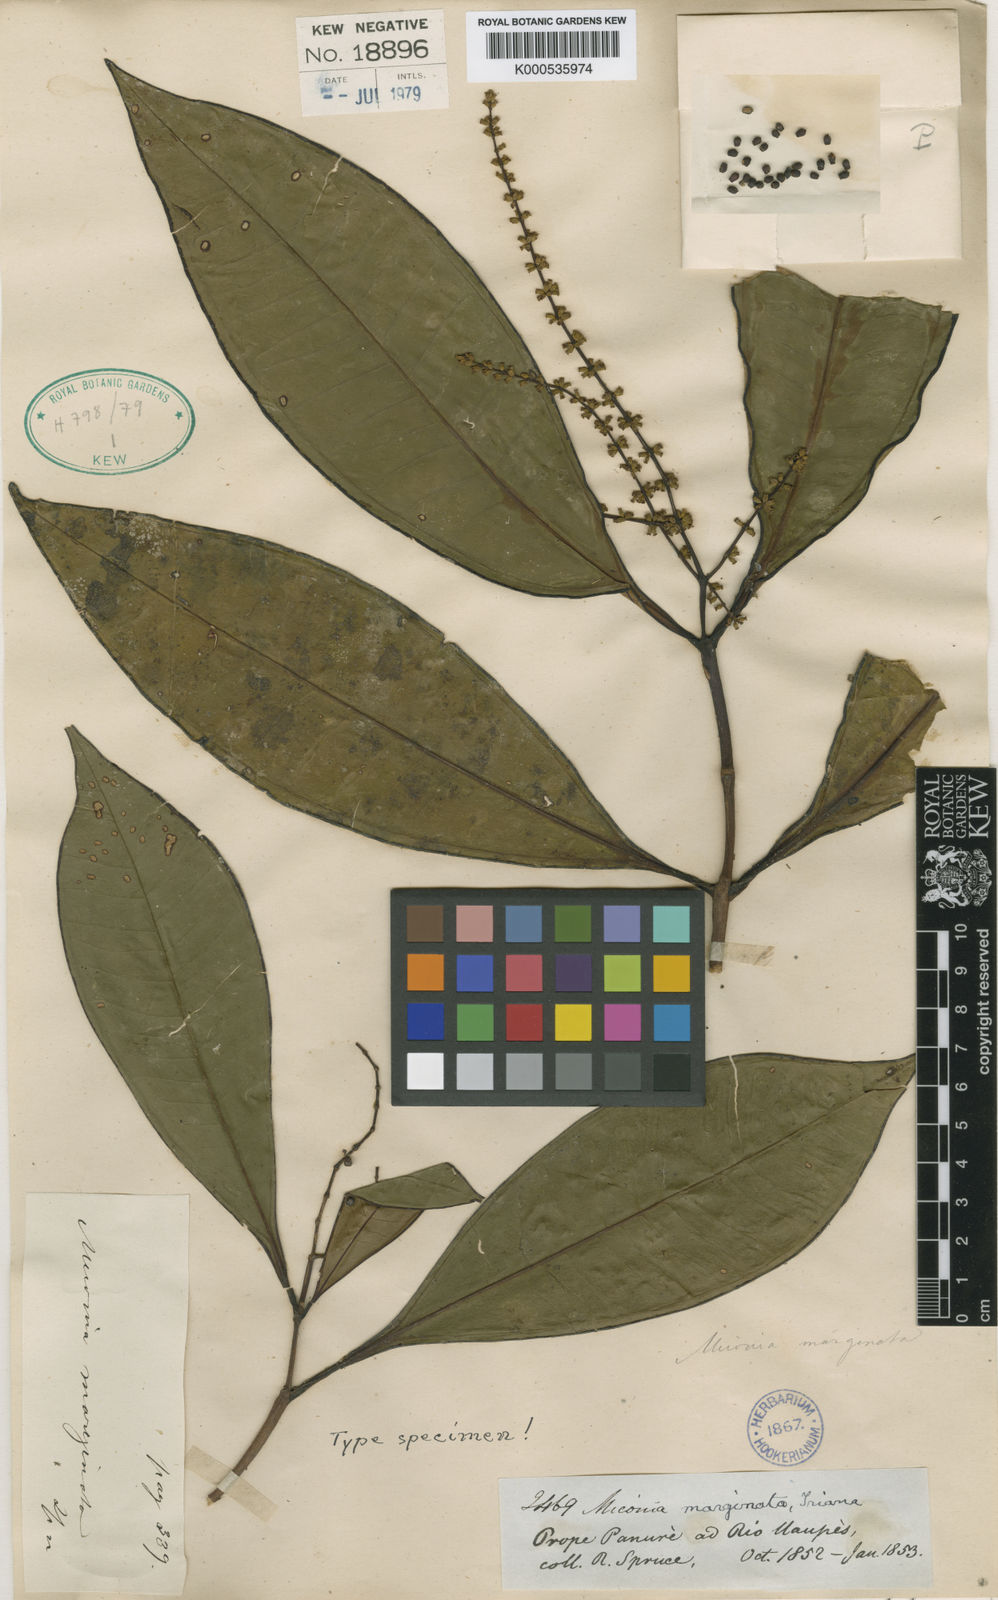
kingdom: Plantae
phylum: Tracheophyta
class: Magnoliopsida
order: Myrtales
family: Melastomataceae
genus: Miconia
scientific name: Miconia marginata
